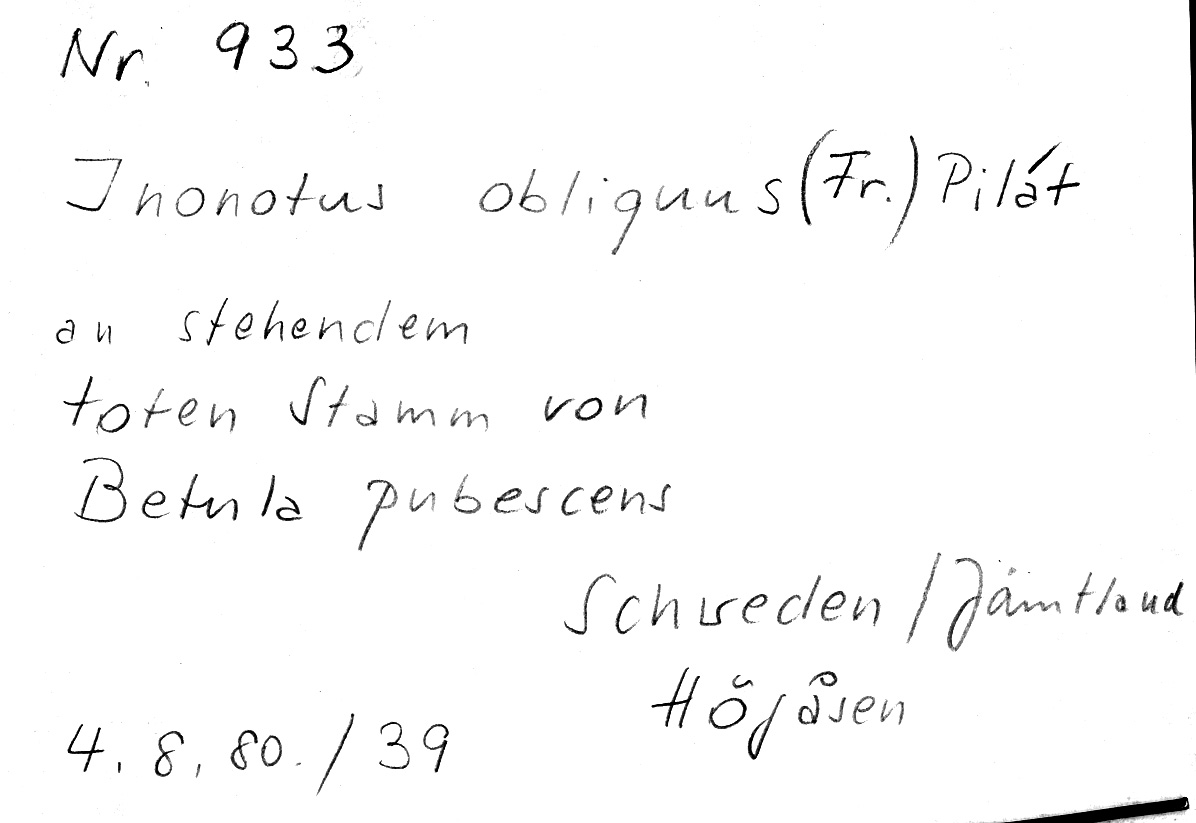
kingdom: Plantae
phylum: Tracheophyta
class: Magnoliopsida
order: Fagales
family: Betulaceae
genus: Betula
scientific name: Betula pubescens
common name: Downy birch
